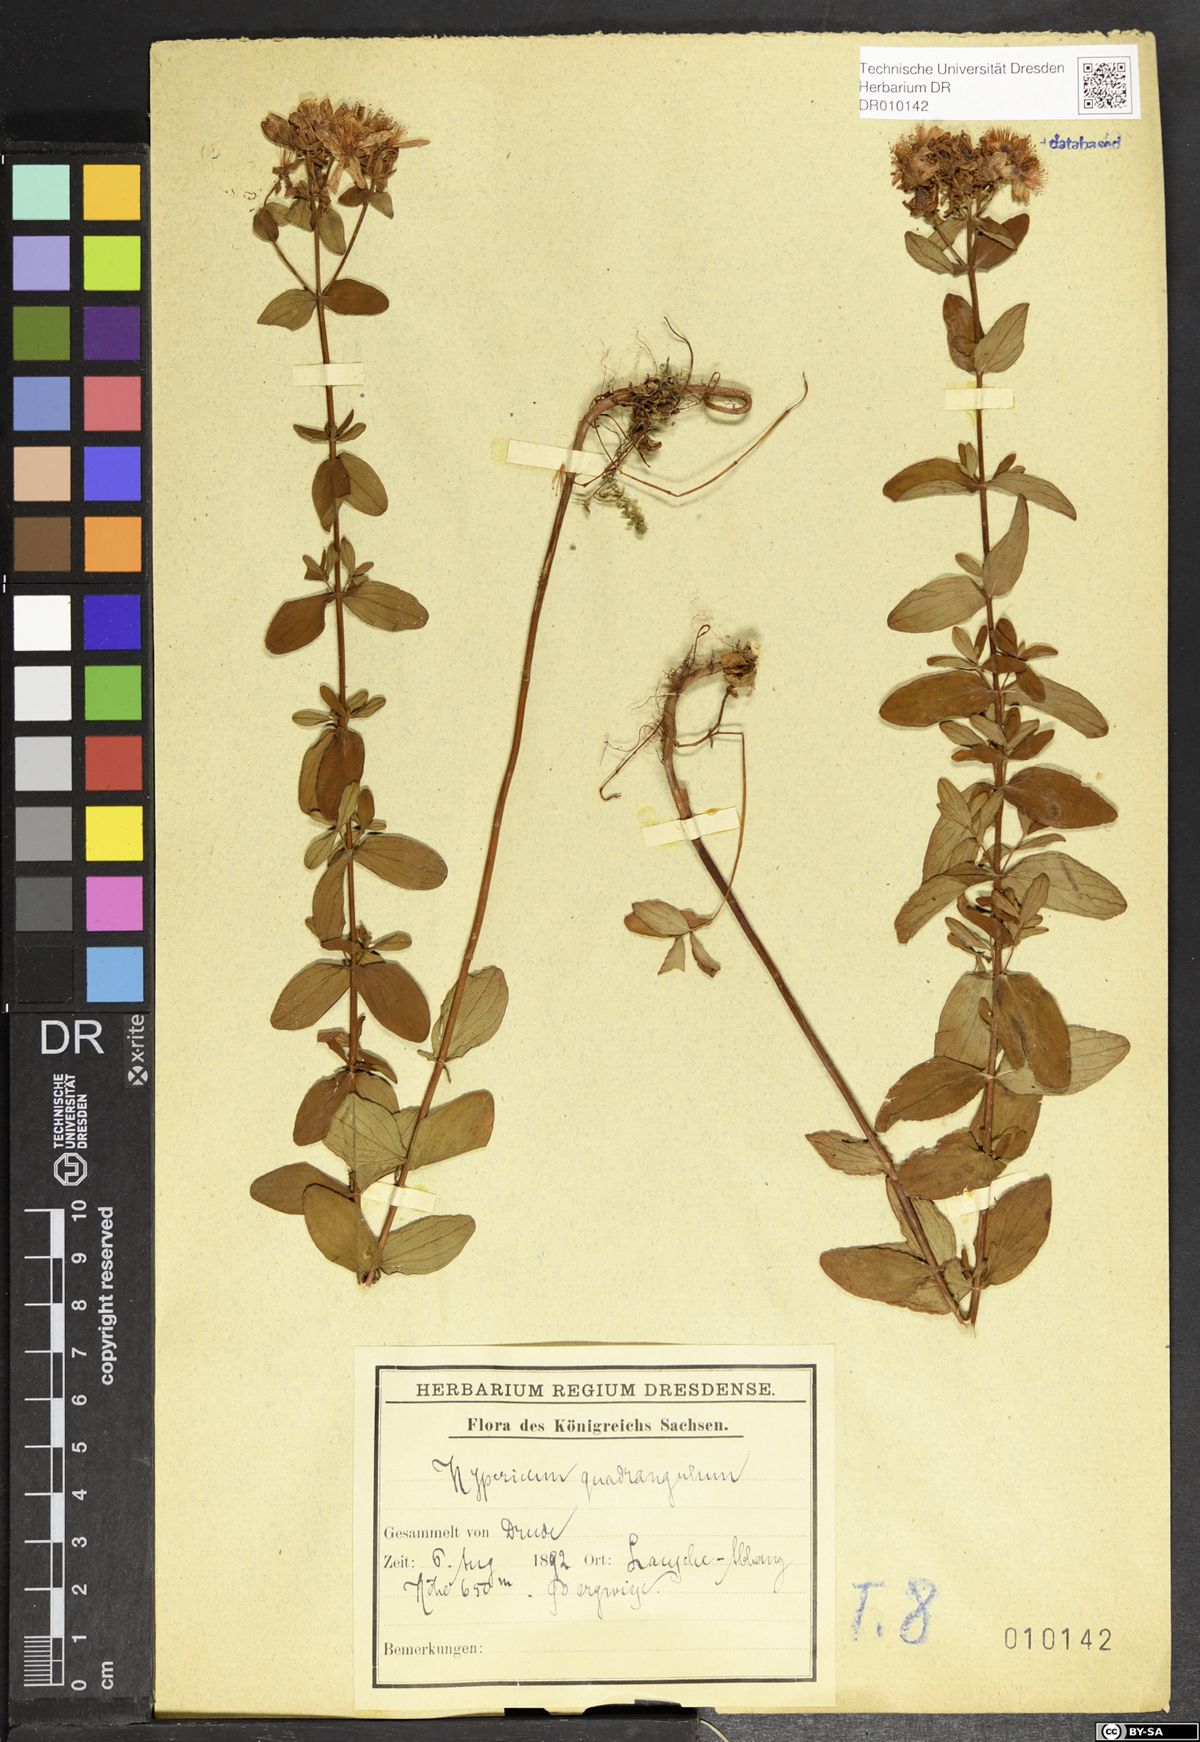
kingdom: Plantae
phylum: Tracheophyta
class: Magnoliopsida
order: Malpighiales
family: Hypericaceae
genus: Hypericum
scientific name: Hypericum maculatum
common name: Imperforate st. john's-wort
